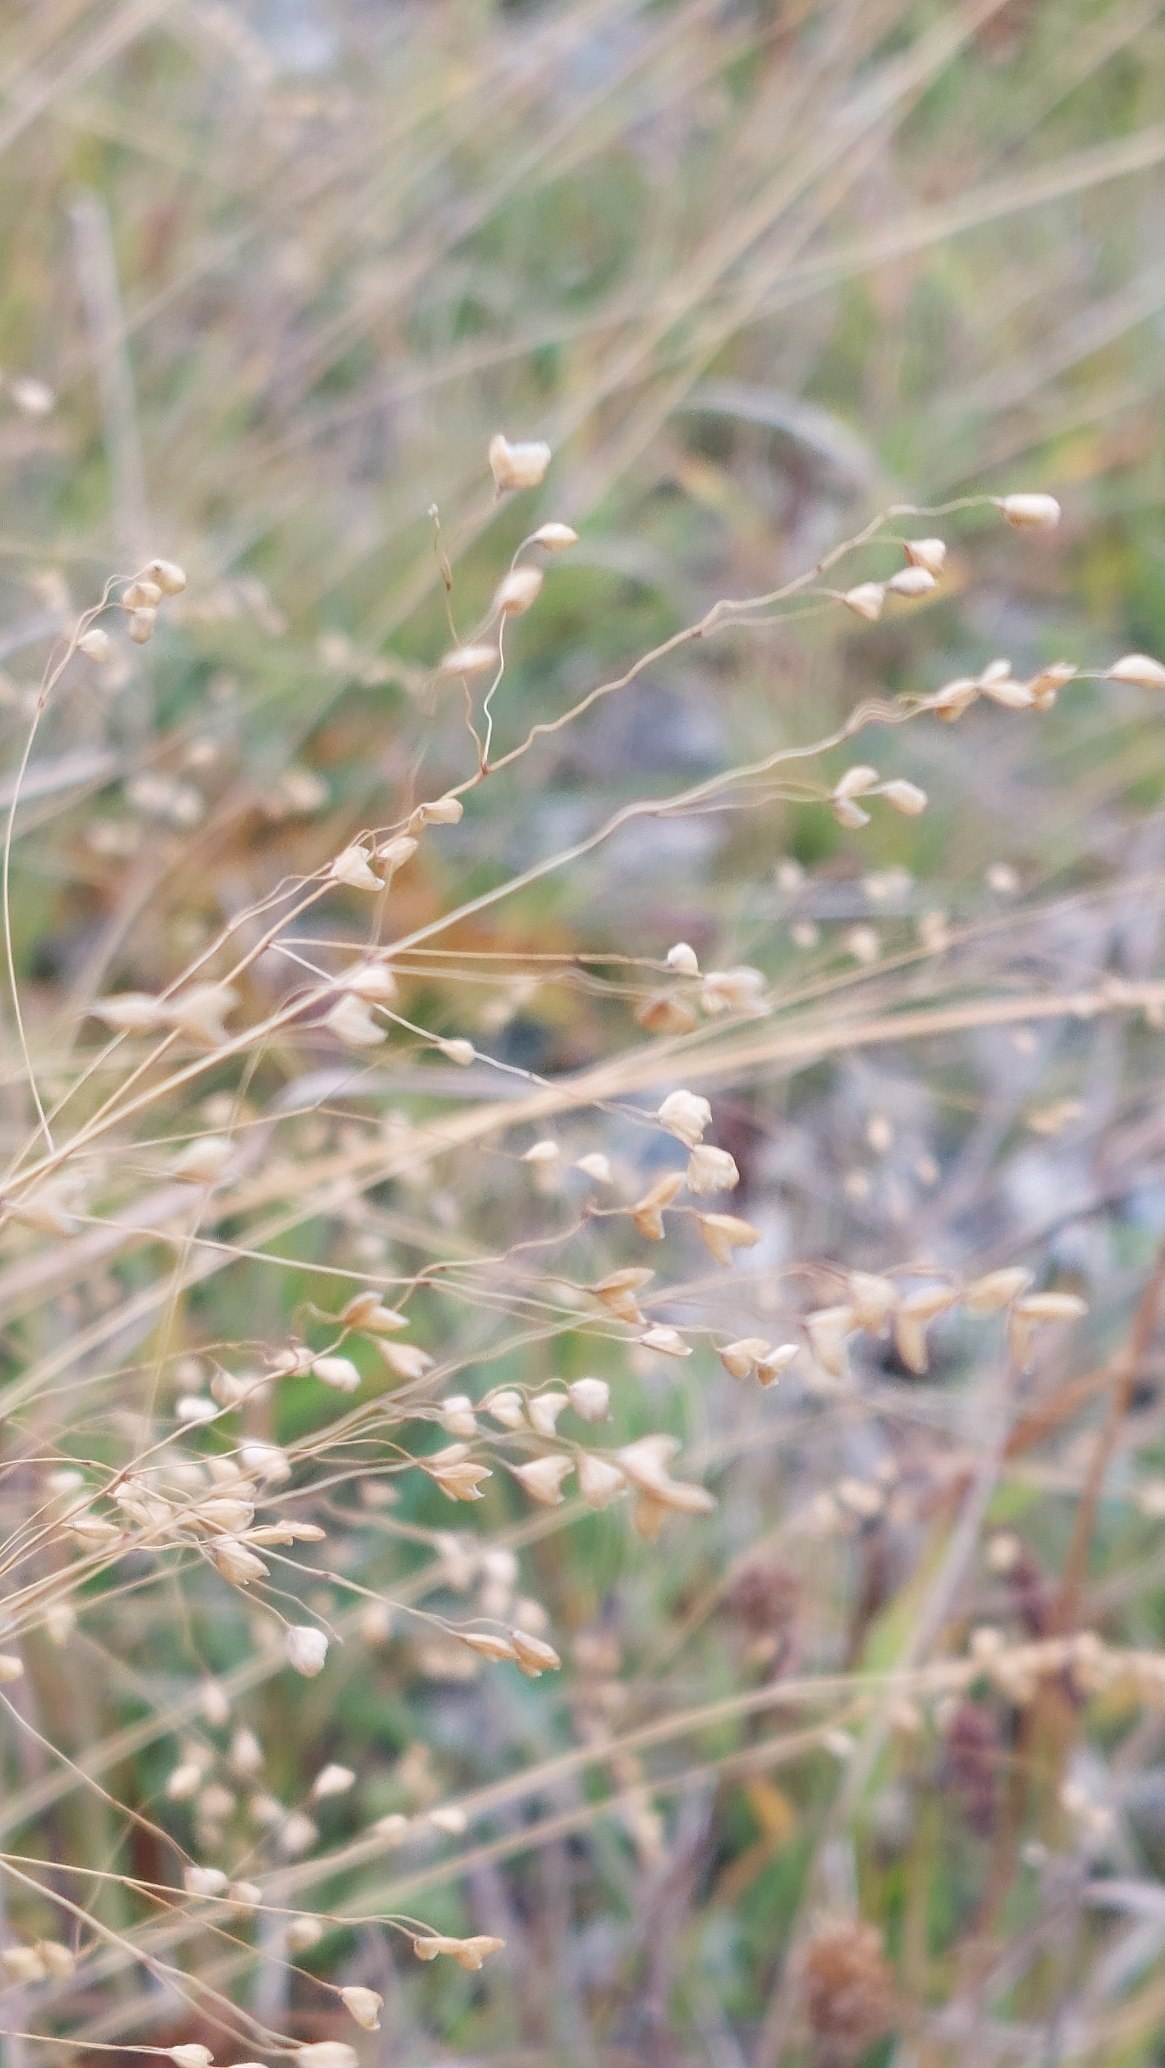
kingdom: Plantae
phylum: Tracheophyta
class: Liliopsida
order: Poales
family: Poaceae
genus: Briza
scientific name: Briza media
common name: Hjertegræs
